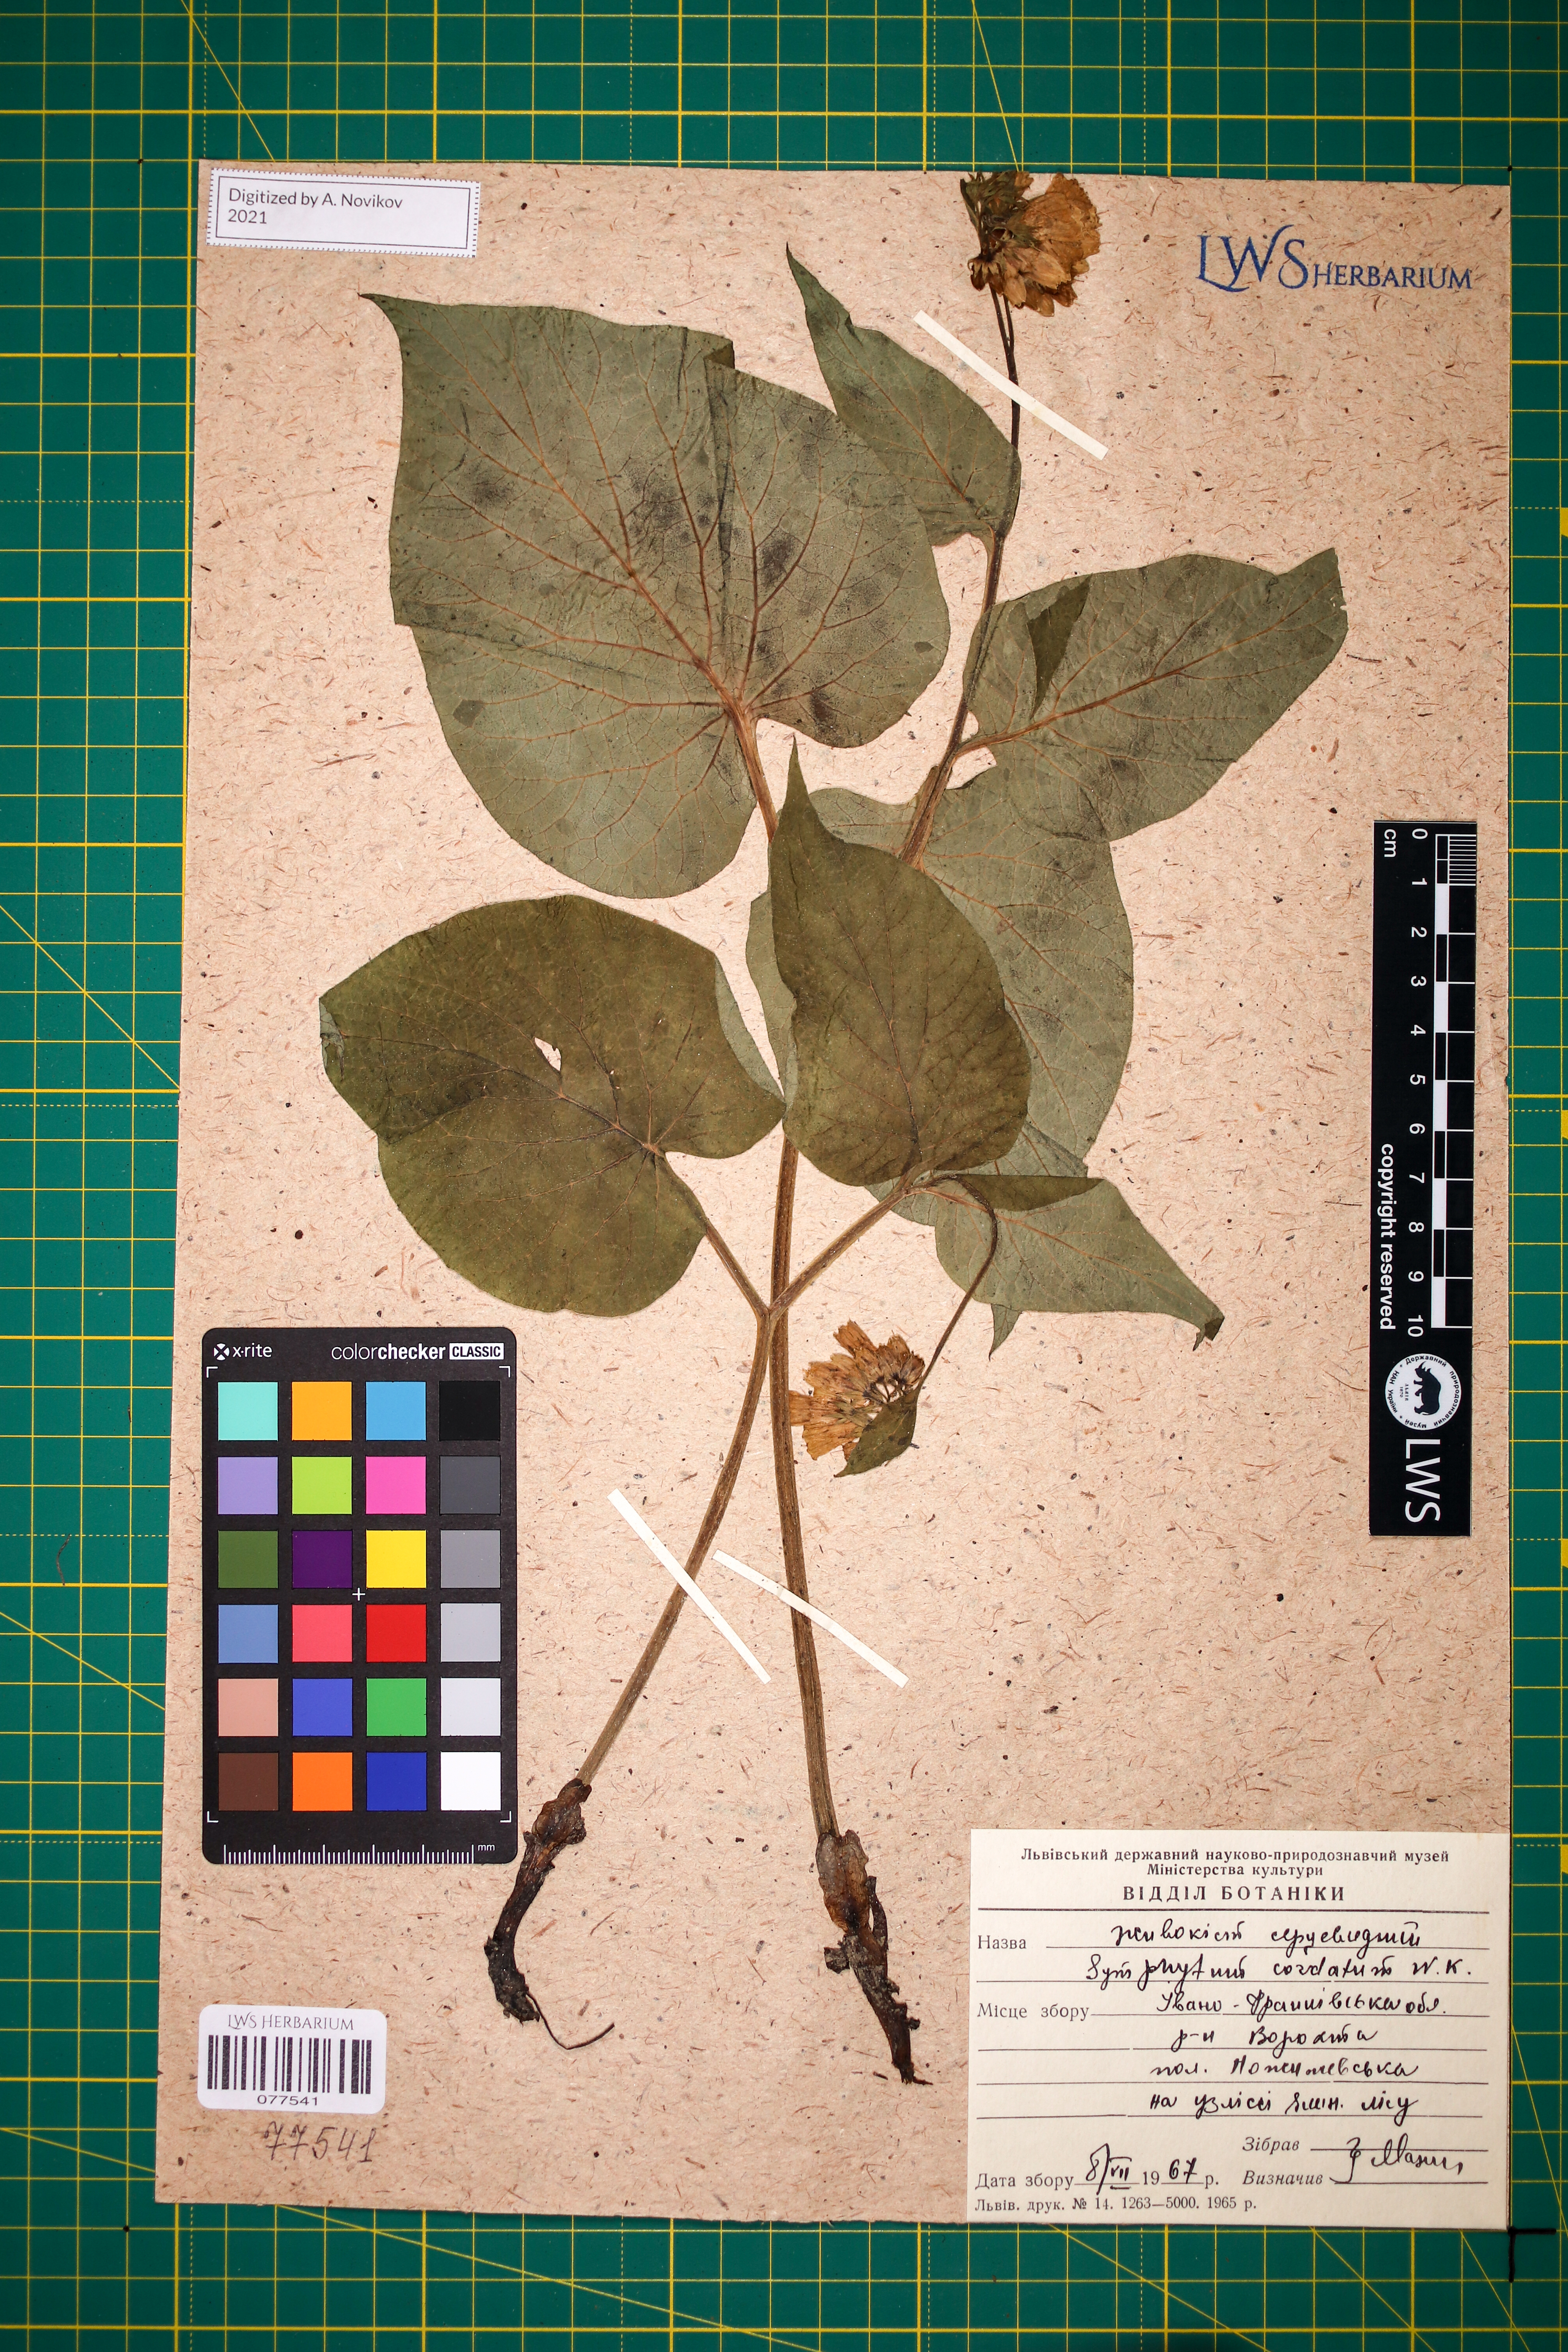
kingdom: Plantae
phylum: Tracheophyta
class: Magnoliopsida
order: Boraginales
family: Boraginaceae
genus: Symphytum
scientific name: Symphytum cordatum
